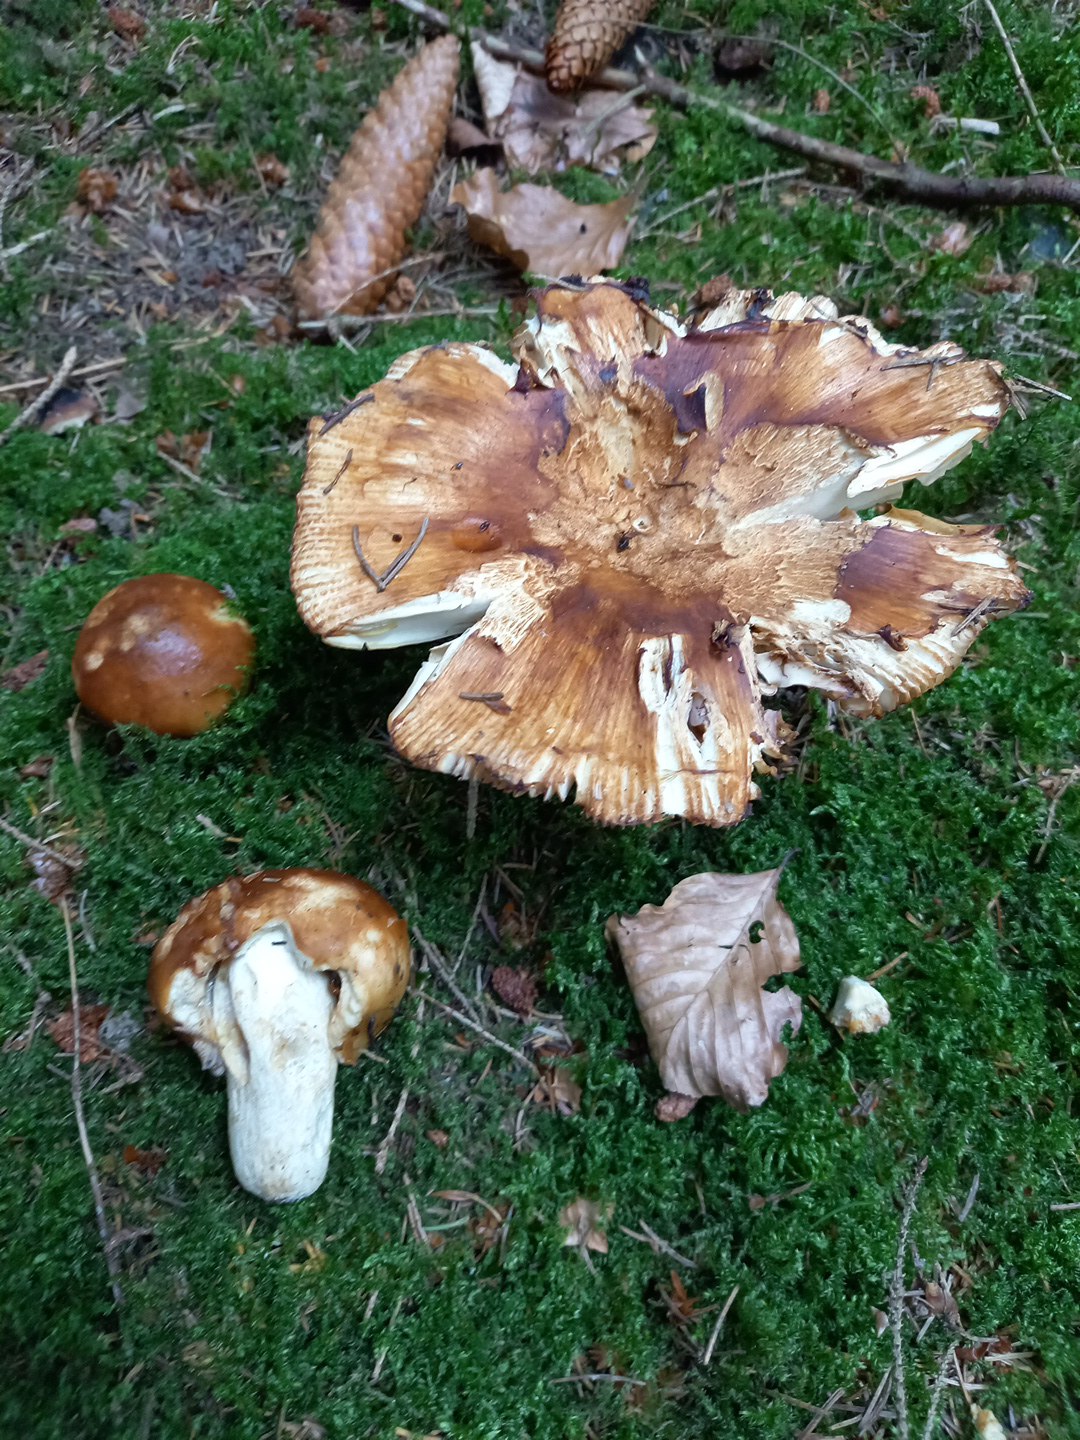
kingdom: Fungi
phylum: Basidiomycota
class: Agaricomycetes
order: Russulales
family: Russulaceae
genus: Russula
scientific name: Russula foetens
